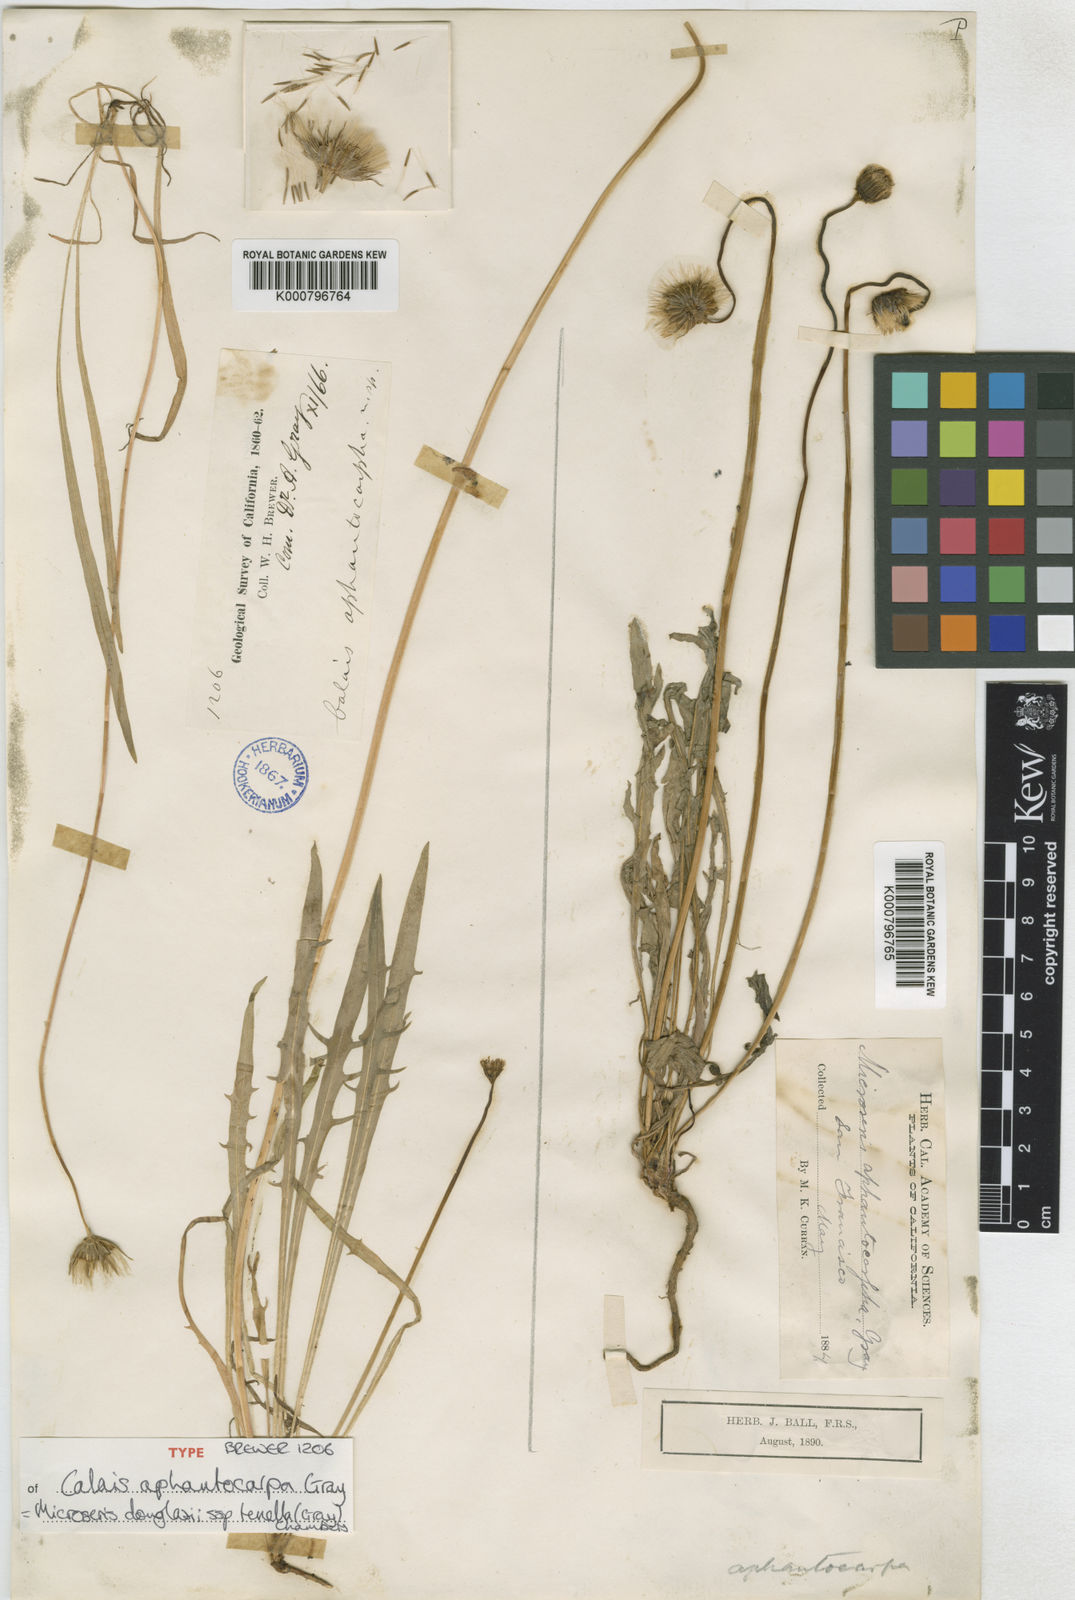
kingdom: Plantae
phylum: Tracheophyta
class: Magnoliopsida
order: Asterales
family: Asteraceae
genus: Microseris
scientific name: Microseris douglasii
